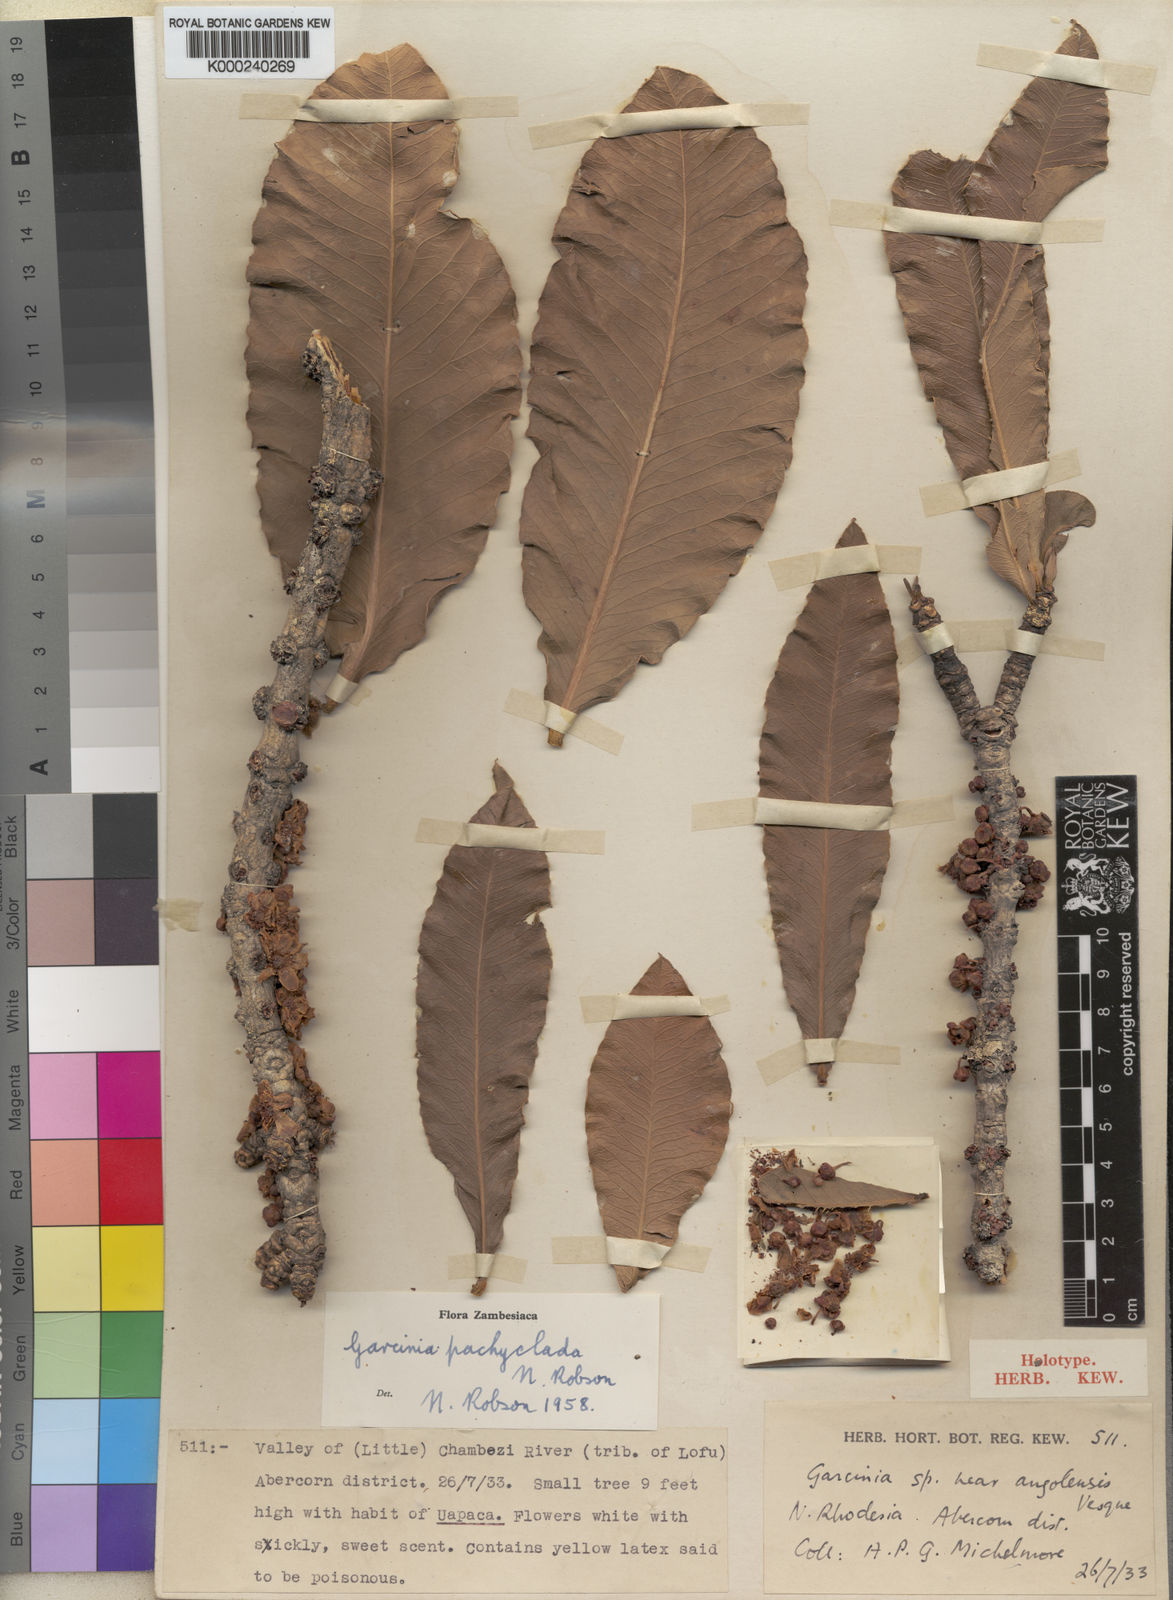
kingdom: Plantae
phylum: Tracheophyta
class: Magnoliopsida
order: Malpighiales
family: Clusiaceae
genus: Garcinia
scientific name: Garcinia pachyclada
